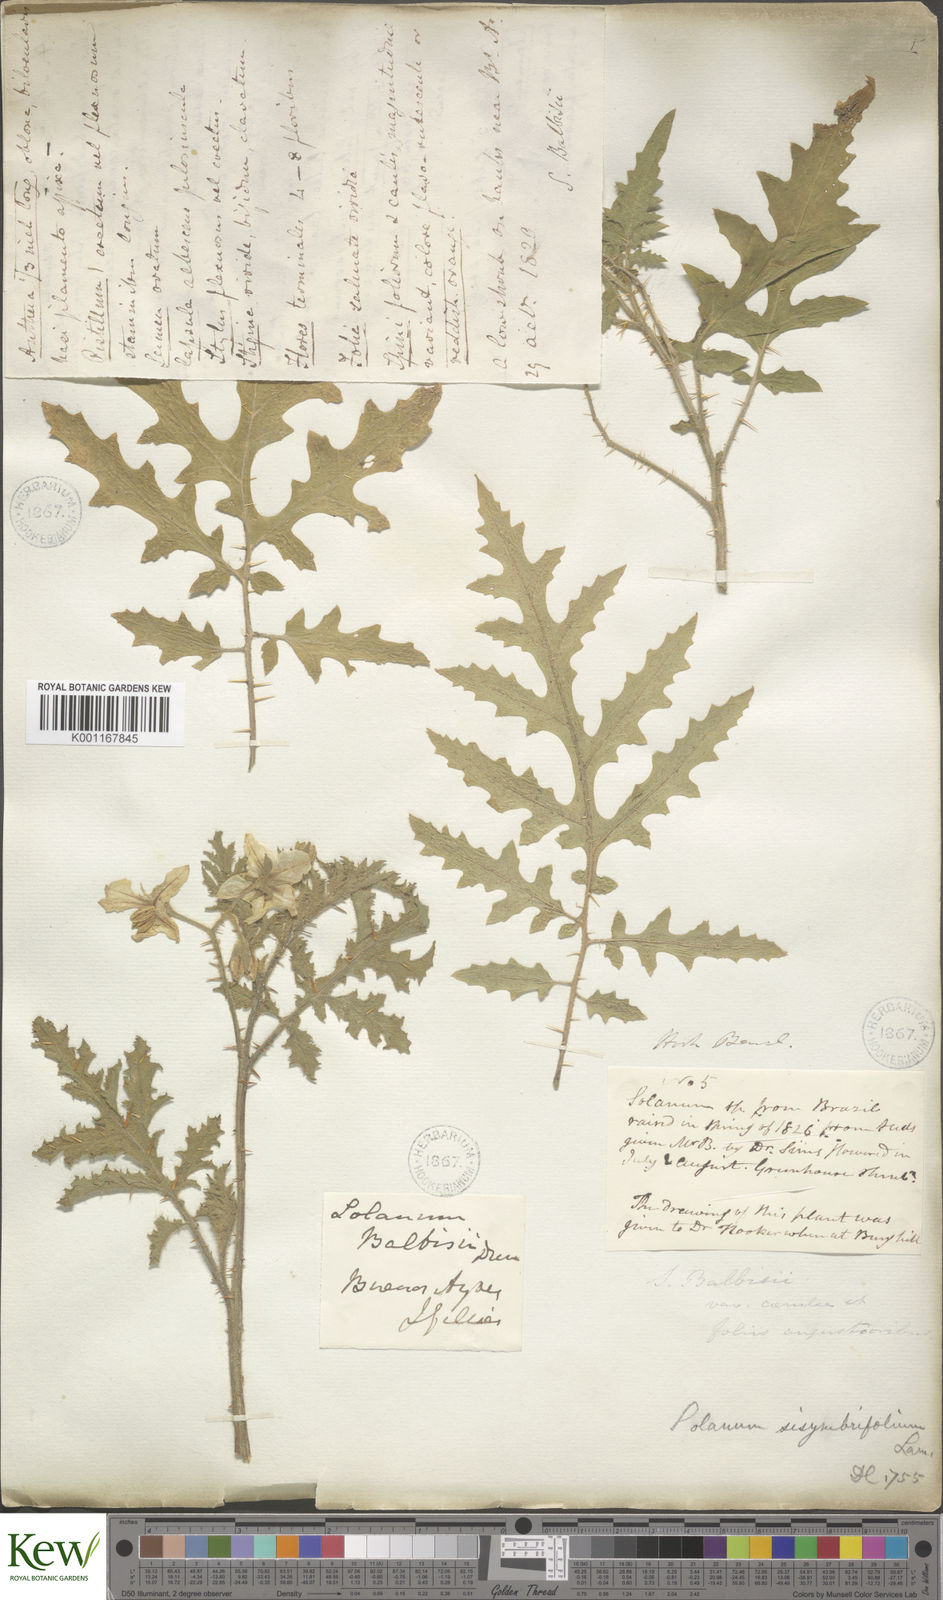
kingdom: Plantae
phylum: Tracheophyta
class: Magnoliopsida
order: Solanales
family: Solanaceae
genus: Solanum
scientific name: Solanum sisymbriifolium
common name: Red buffalo-bur
